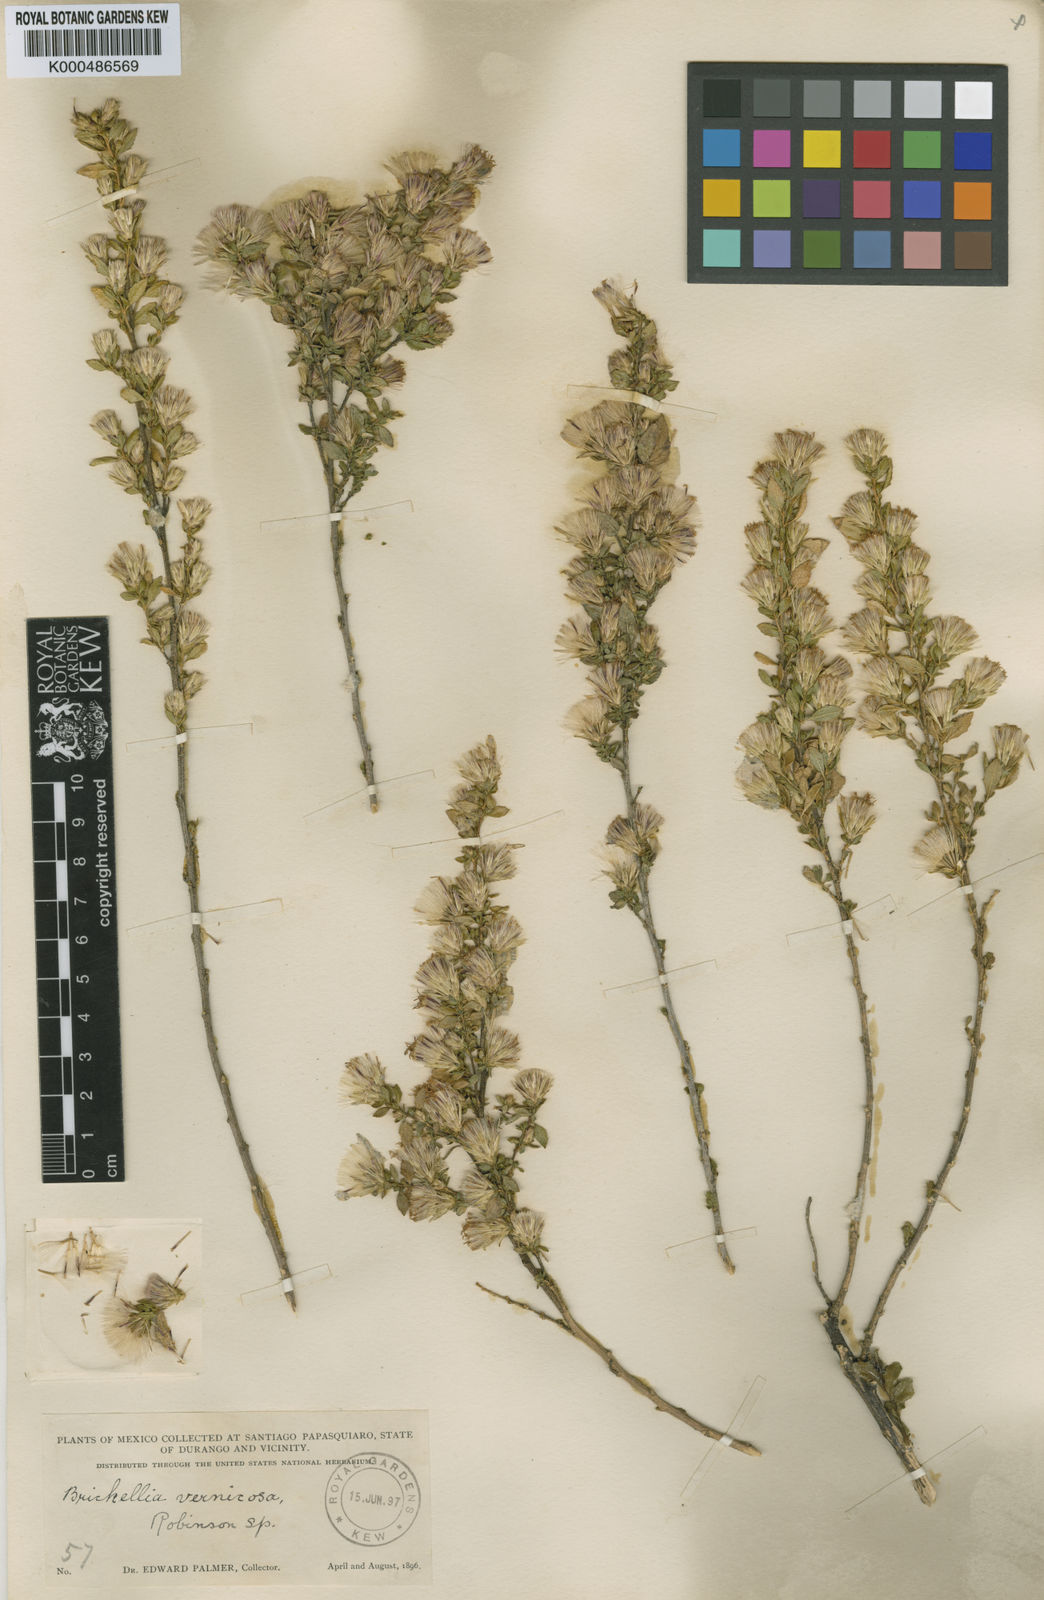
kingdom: Plantae
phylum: Tracheophyta
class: Magnoliopsida
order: Asterales
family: Asteraceae
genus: Brickellia
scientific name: Brickellia vernicosa
